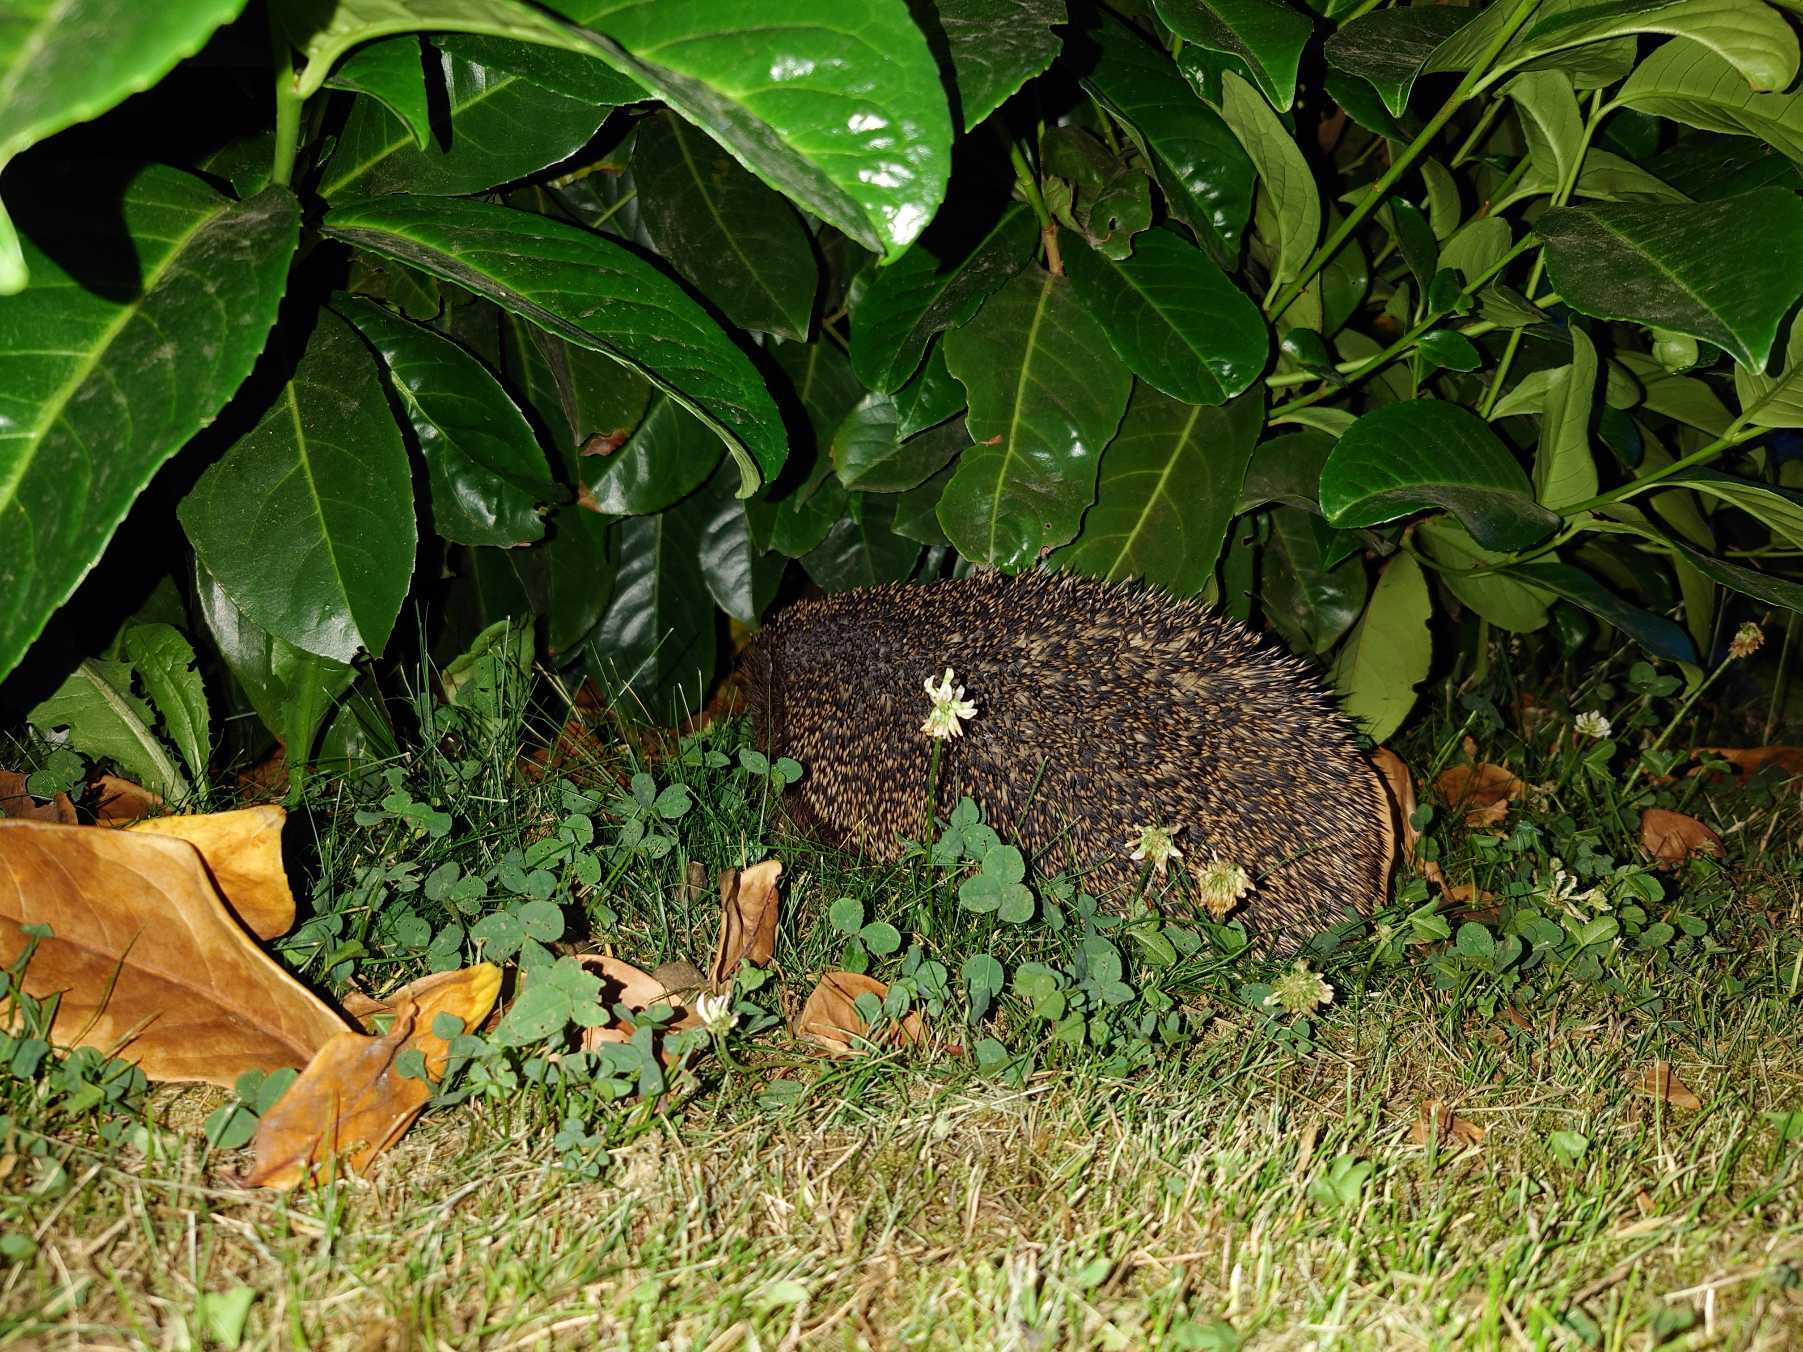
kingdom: Animalia
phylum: Chordata
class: Mammalia
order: Erinaceomorpha
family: Erinaceidae
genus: Erinaceus
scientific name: Erinaceus europaeus
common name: Pindsvin
